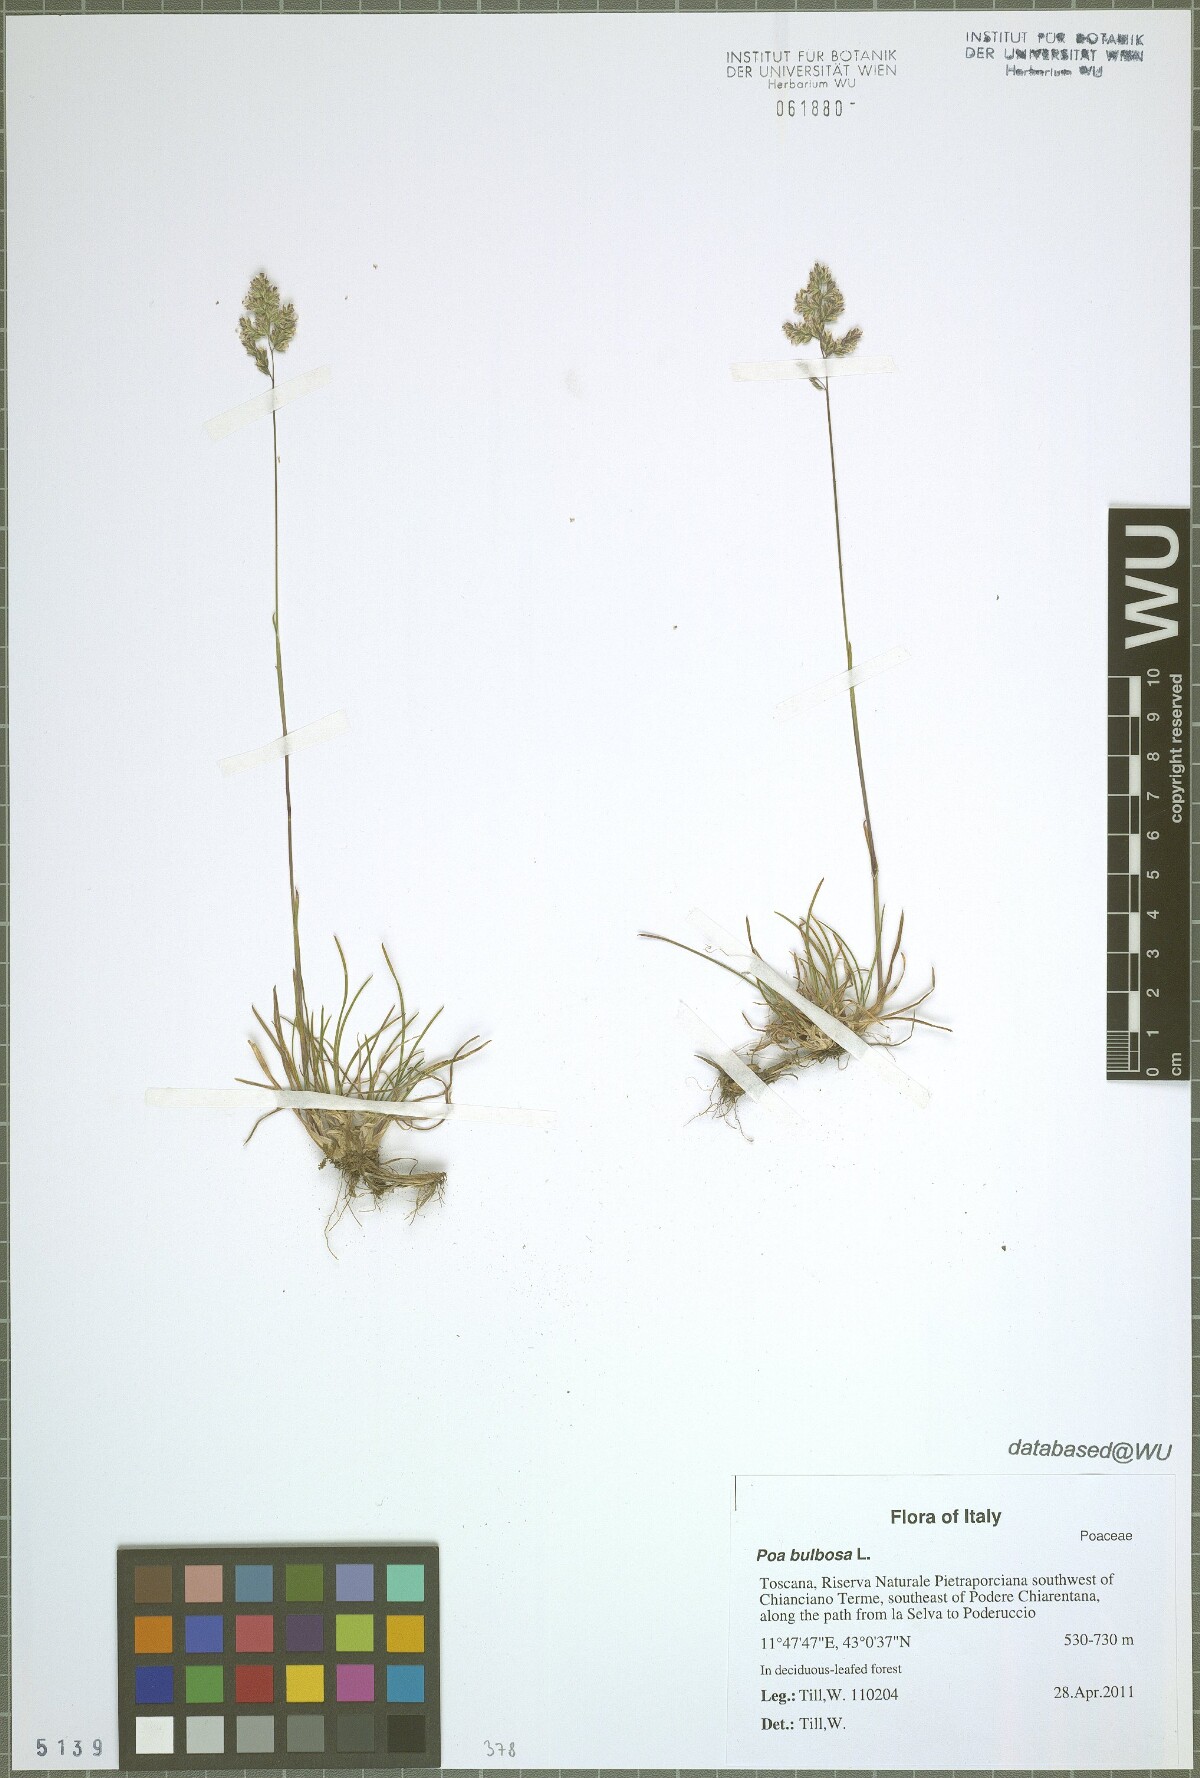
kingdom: Plantae
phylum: Tracheophyta
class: Liliopsida
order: Poales
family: Poaceae
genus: Poa
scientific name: Poa bulbosa
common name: Bulbous bluegrass
